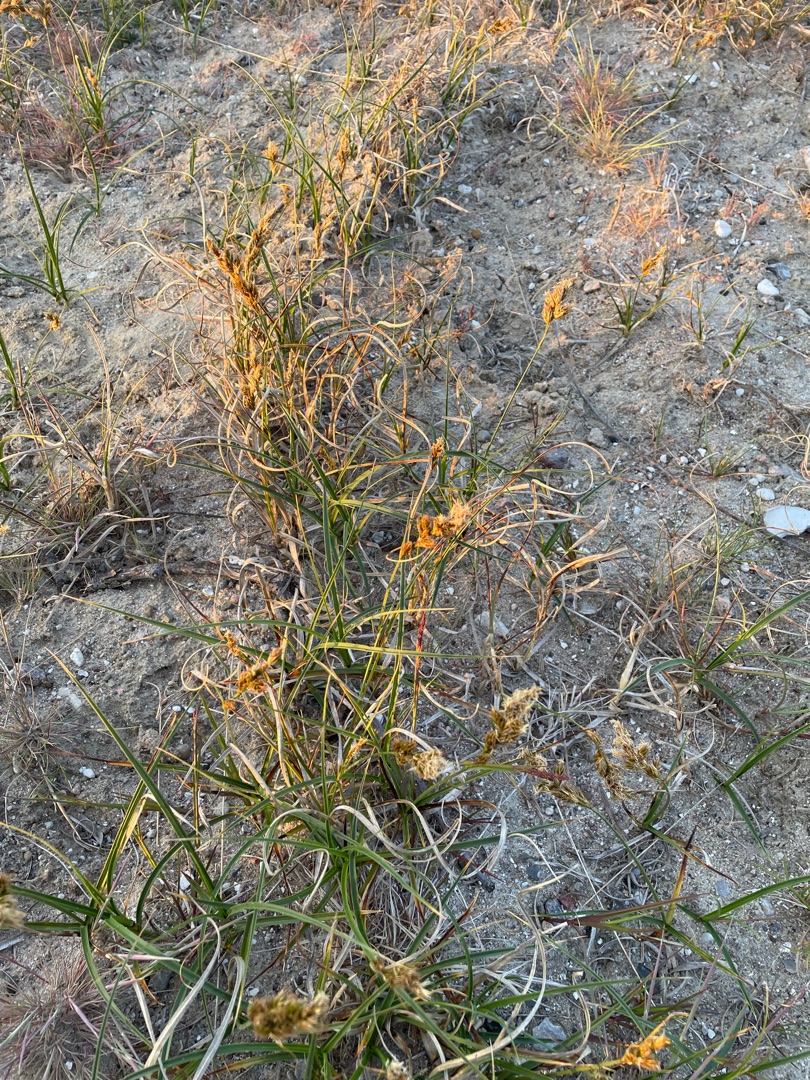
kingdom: Plantae
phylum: Tracheophyta
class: Liliopsida
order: Poales
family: Cyperaceae
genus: Carex
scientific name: Carex arenaria
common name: Sand-star
